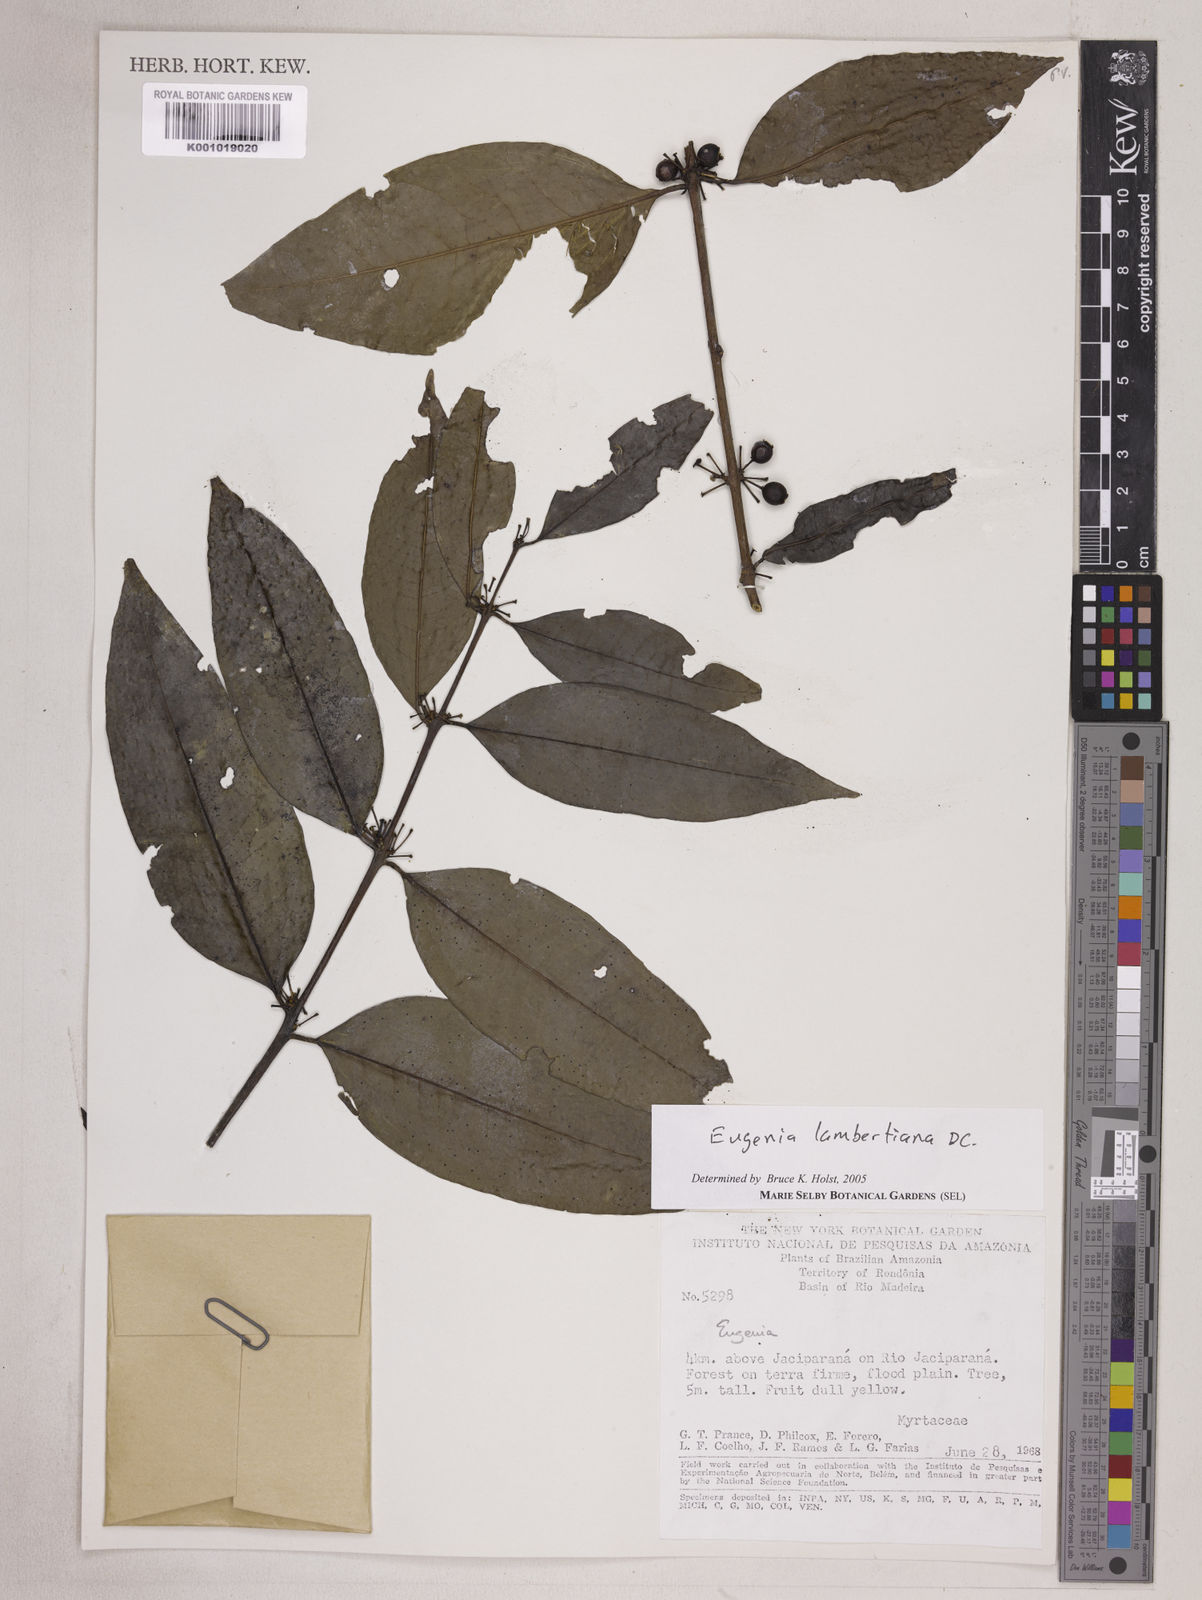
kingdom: Plantae
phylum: Tracheophyta
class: Magnoliopsida
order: Myrtales
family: Myrtaceae
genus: Eugenia
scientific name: Eugenia lambertiana
